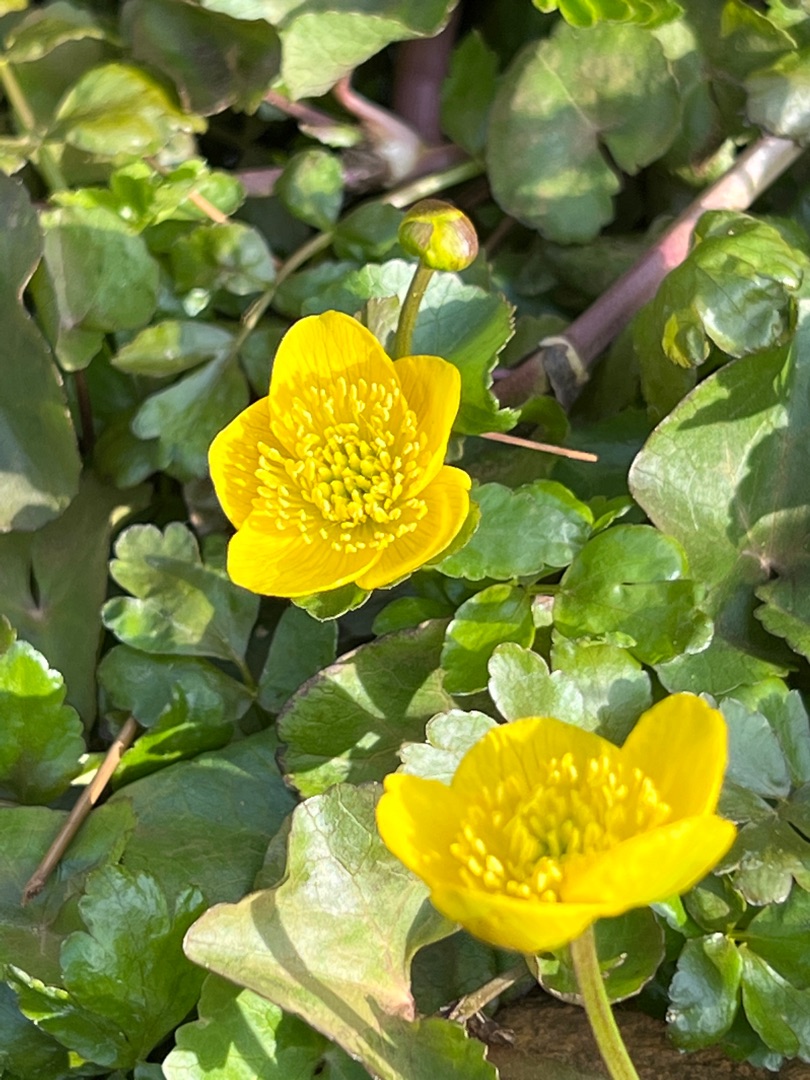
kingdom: Plantae
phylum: Tracheophyta
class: Magnoliopsida
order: Ranunculales
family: Ranunculaceae
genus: Caltha
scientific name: Caltha palustris
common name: Eng-kabbeleje
